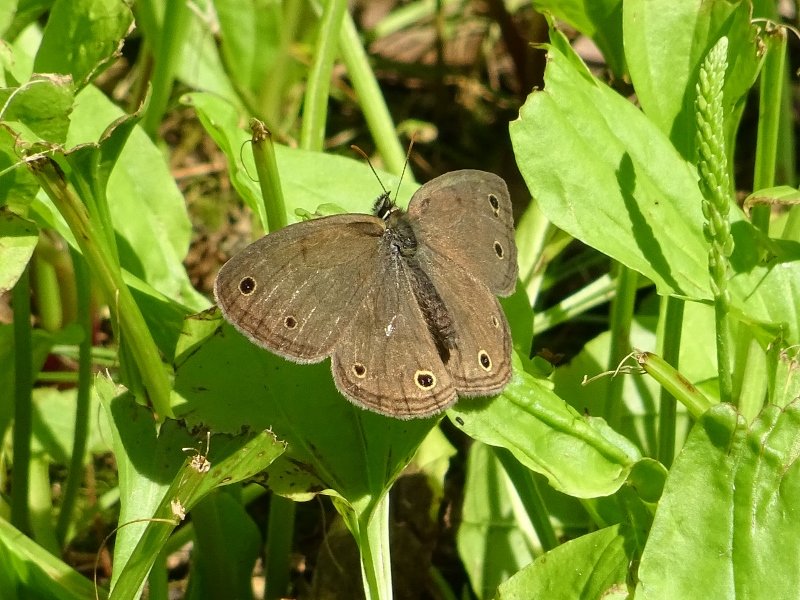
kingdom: Animalia
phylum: Arthropoda
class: Insecta
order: Lepidoptera
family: Nymphalidae
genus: Euptychia
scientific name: Euptychia cymela
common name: Little Wood Satyr
